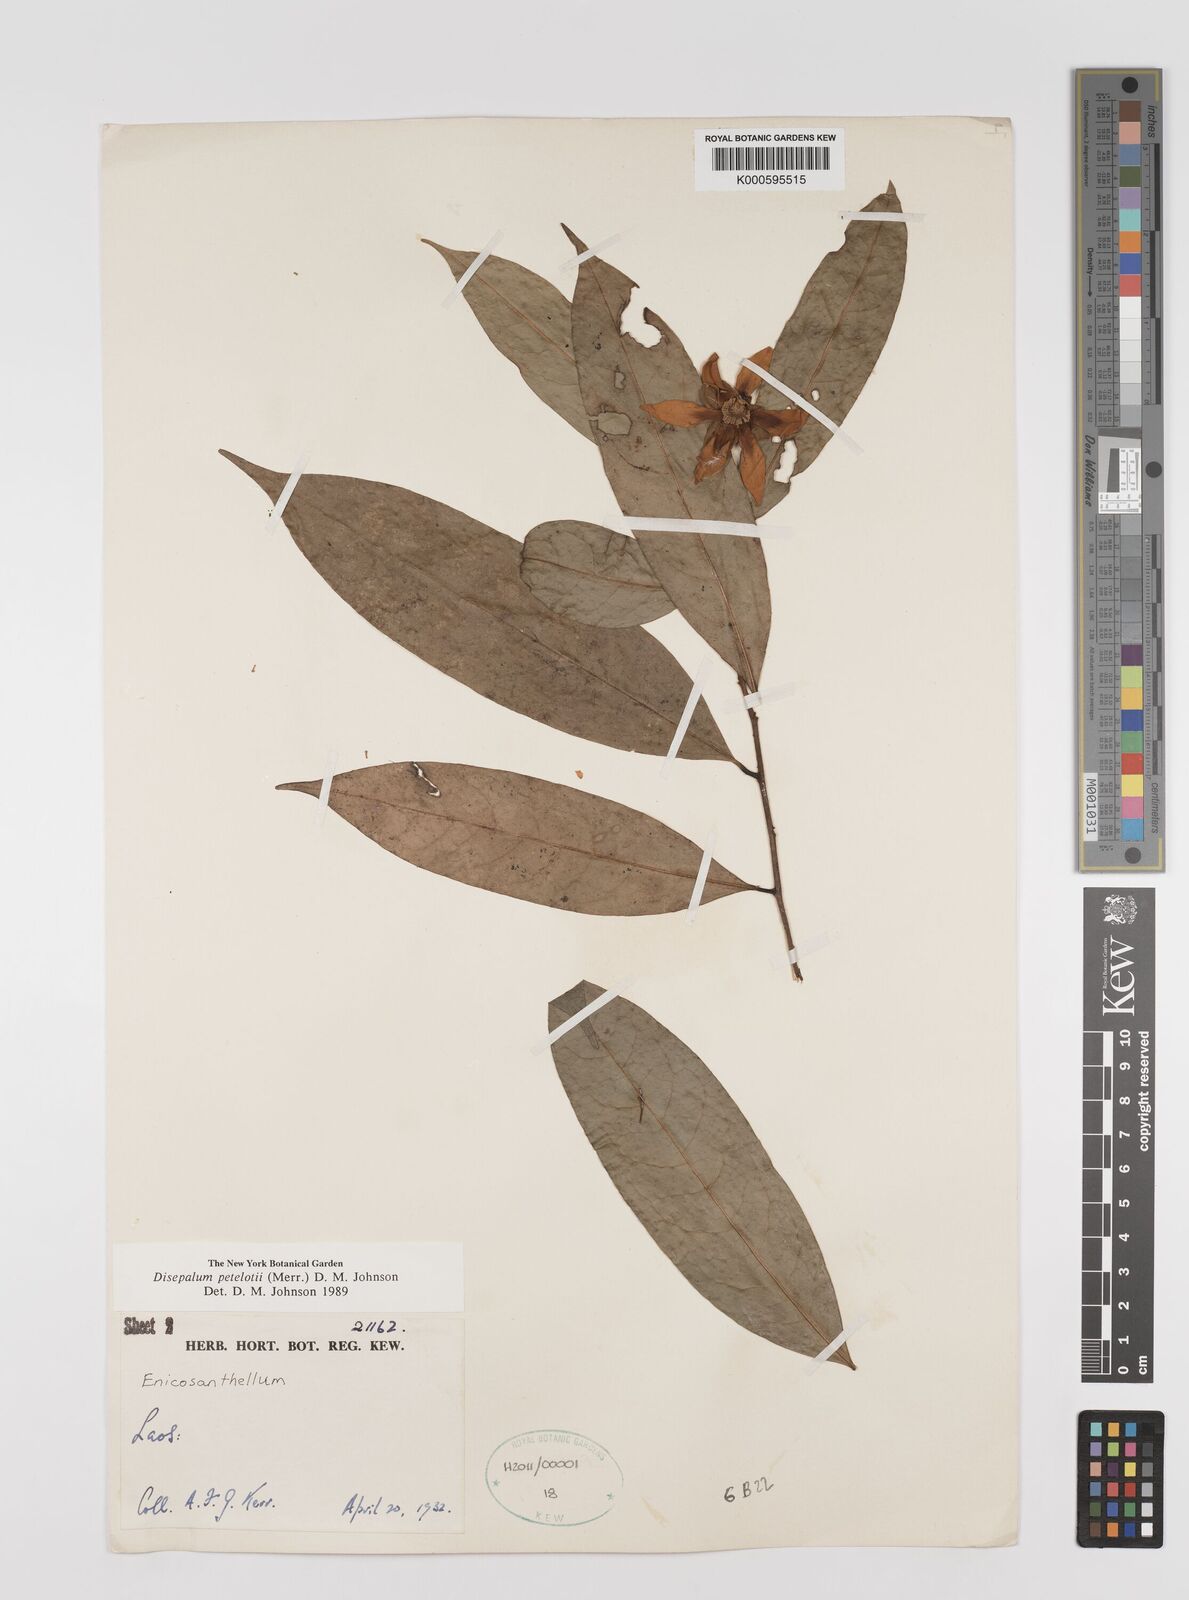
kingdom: Plantae
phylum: Tracheophyta
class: Magnoliopsida
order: Magnoliales
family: Annonaceae
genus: Disepalum
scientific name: Disepalum petelotii
